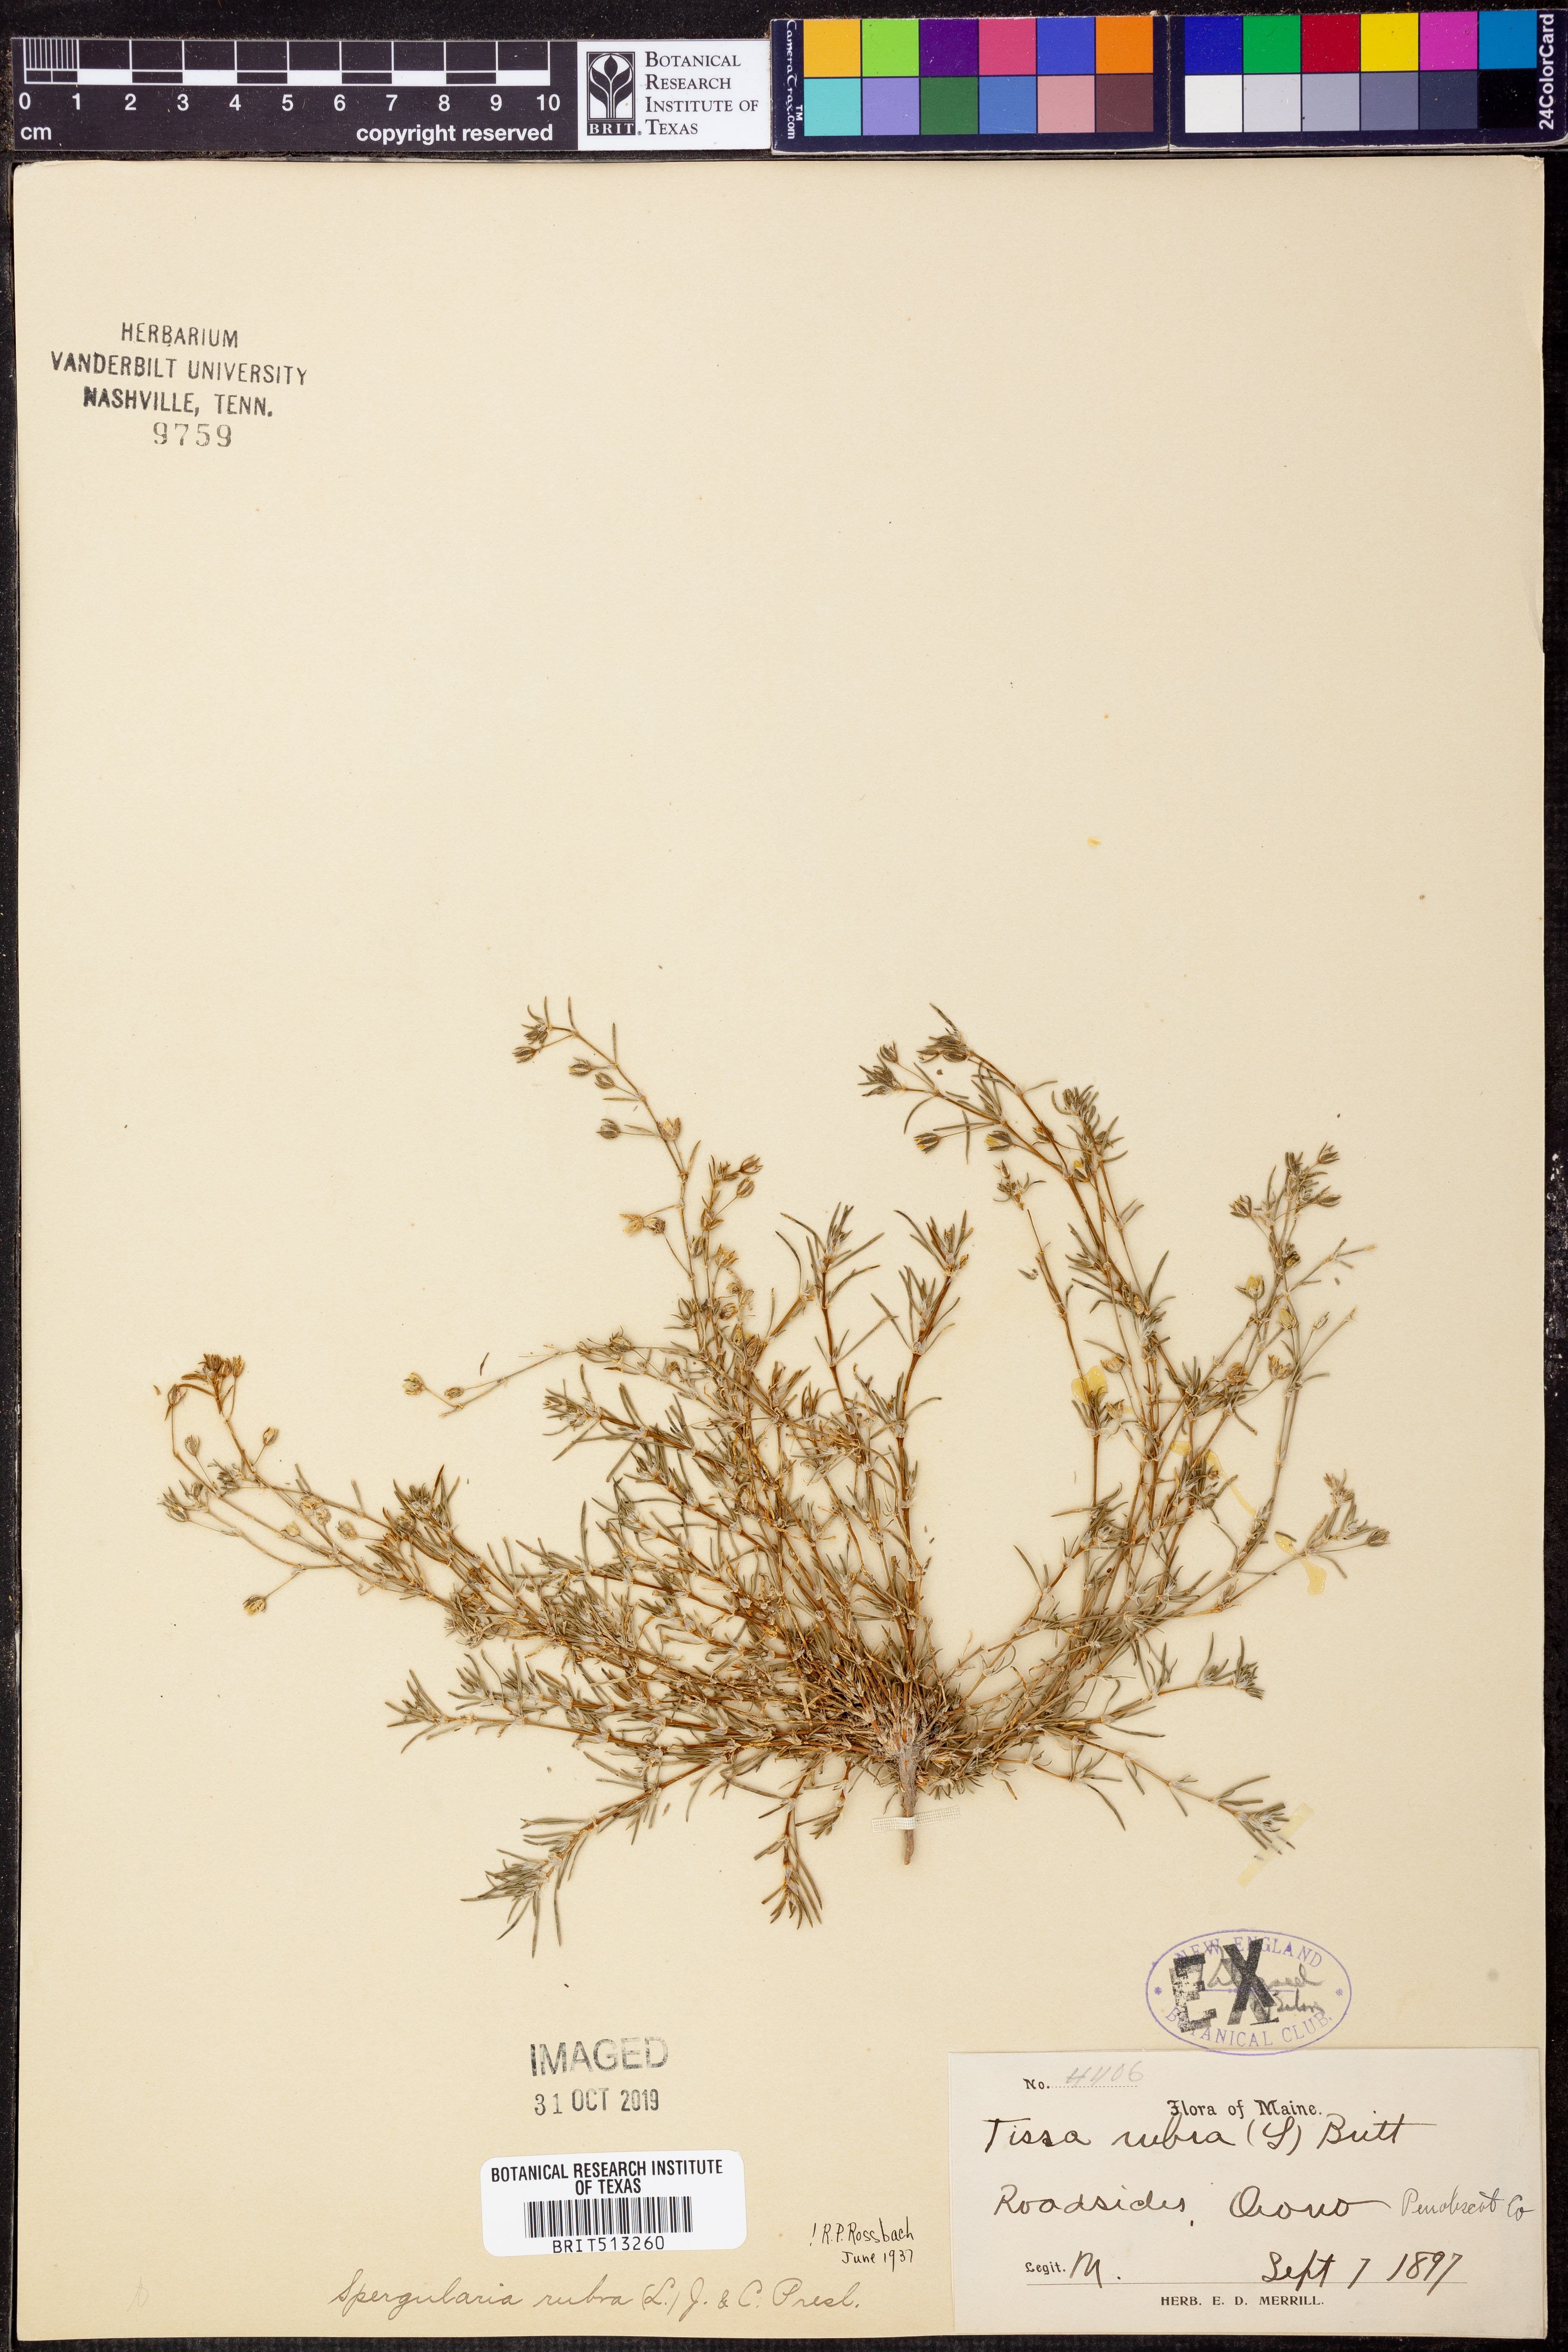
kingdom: Plantae
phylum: Tracheophyta
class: Magnoliopsida
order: Caryophyllales
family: Caryophyllaceae
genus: Spergularia
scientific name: Spergularia rubra
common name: Red sand-spurrey
